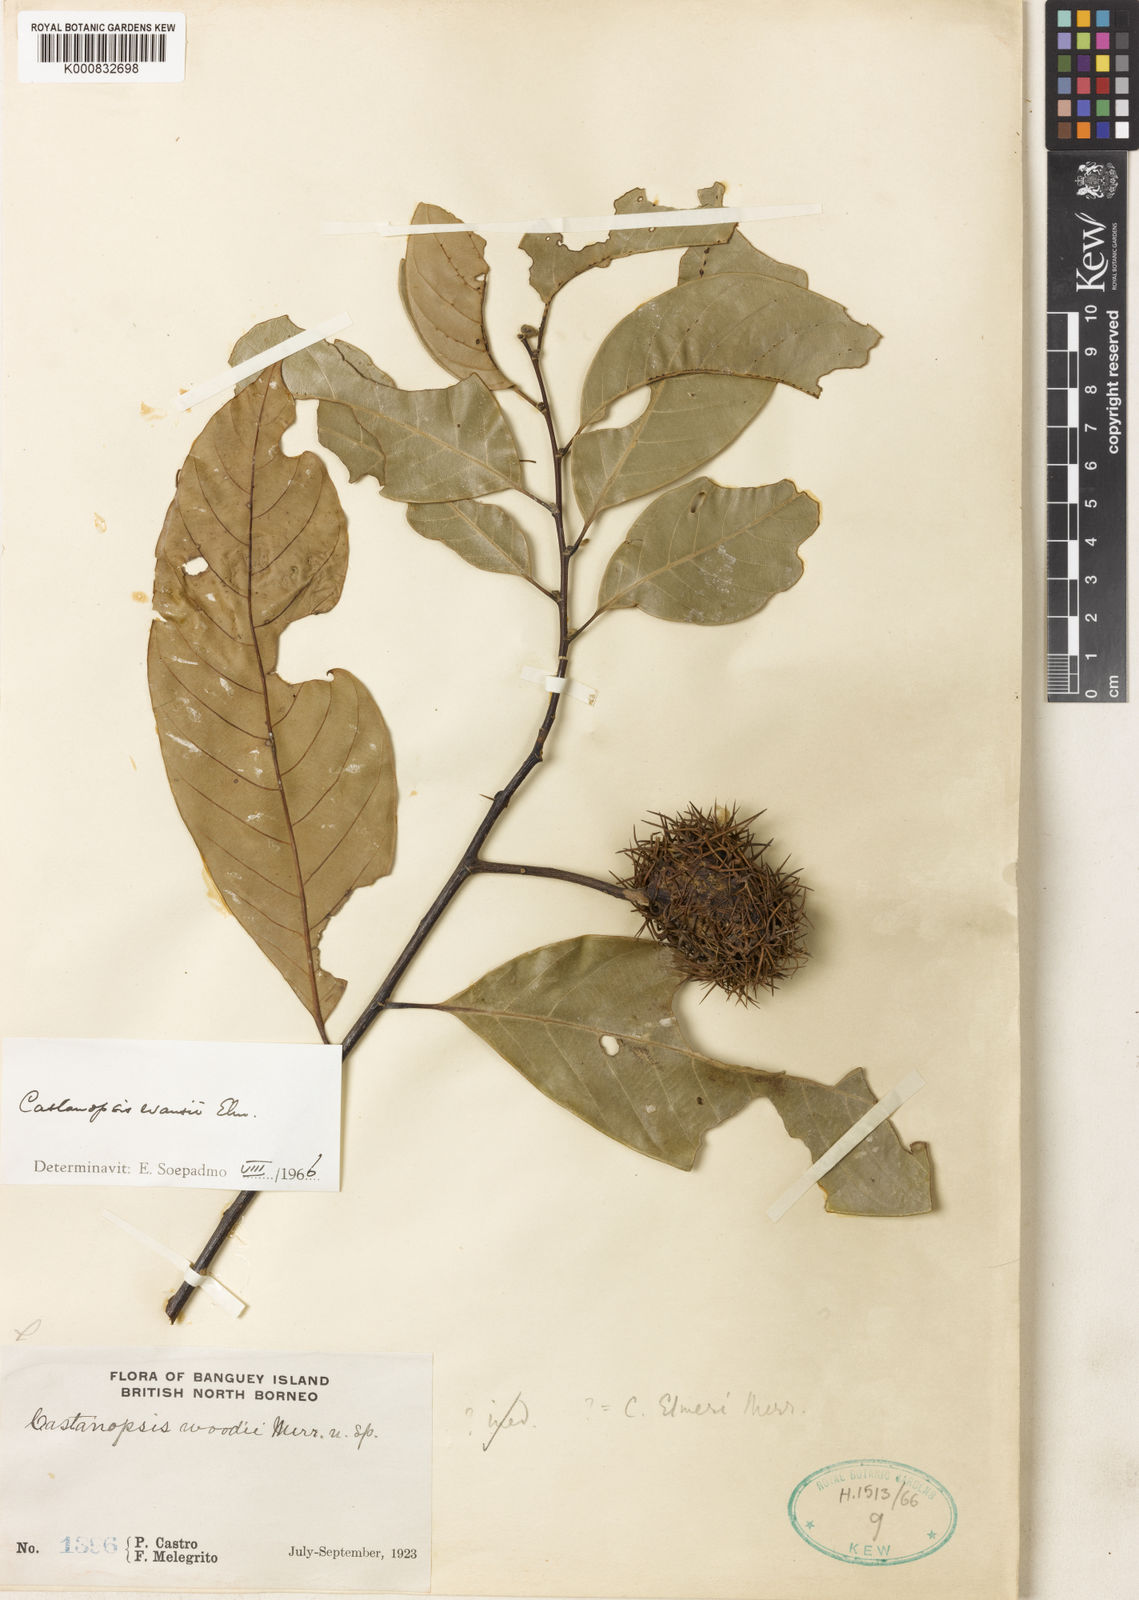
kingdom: Plantae
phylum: Tracheophyta
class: Magnoliopsida
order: Fagales
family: Fagaceae
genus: Castanopsis
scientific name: Castanopsis evansii
